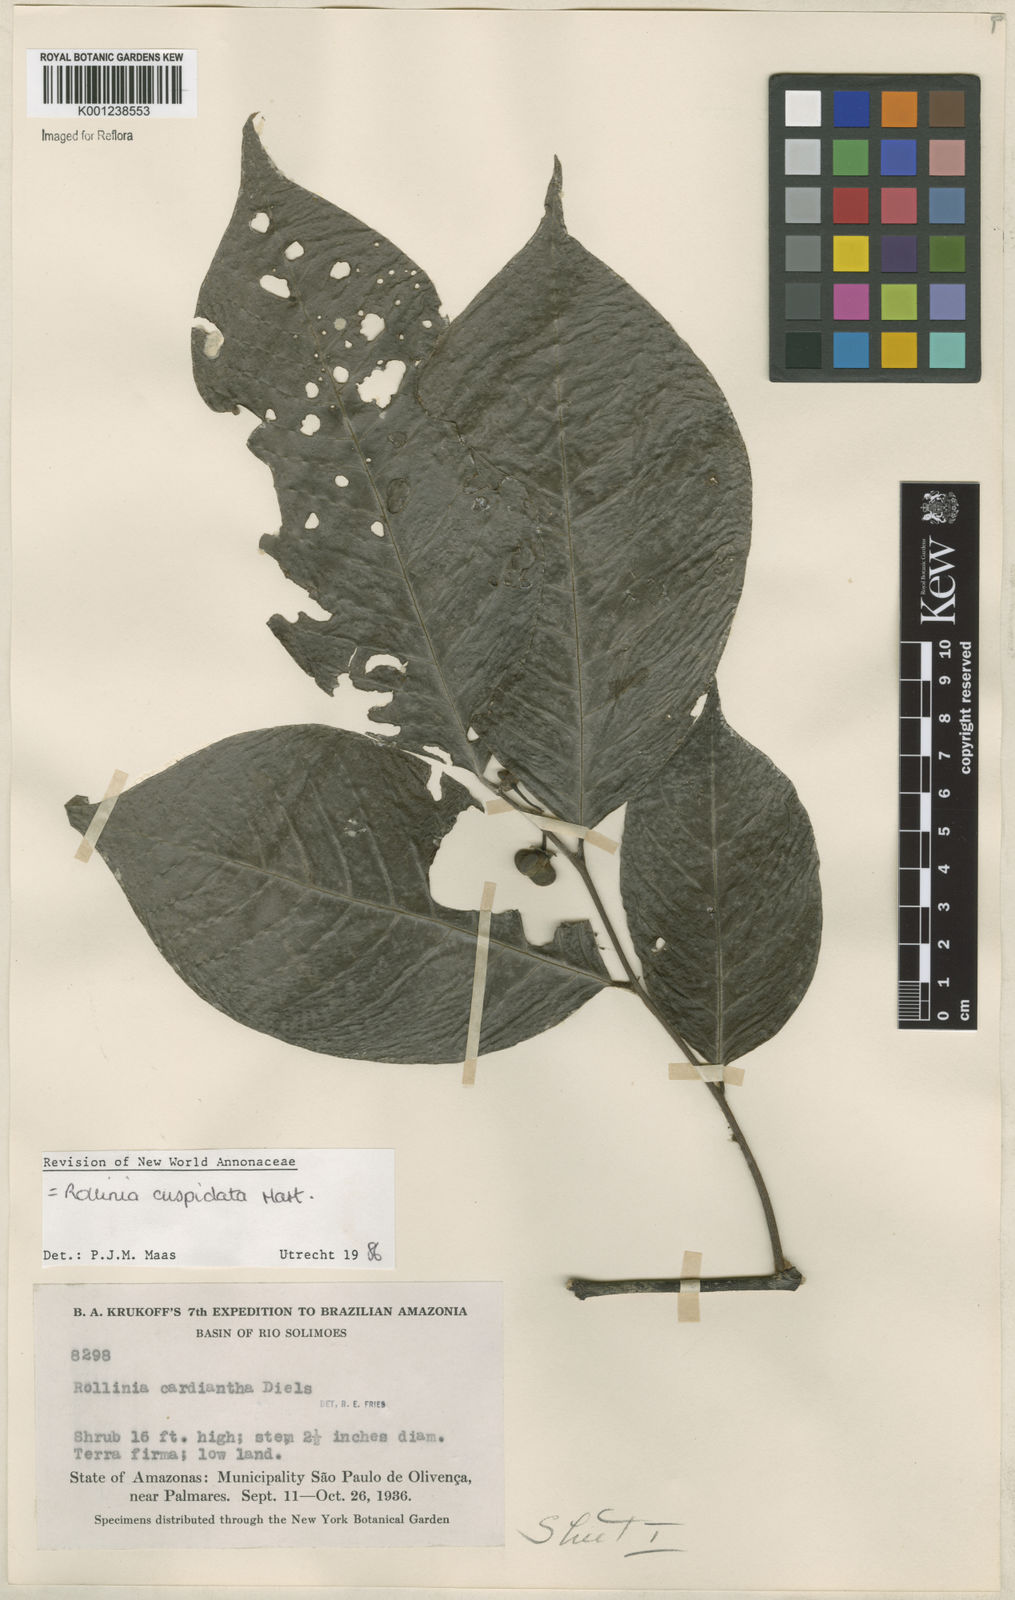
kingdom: Plantae
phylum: Tracheophyta
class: Magnoliopsida
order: Magnoliales
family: Annonaceae
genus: Annona
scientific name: Annona cuspidata
